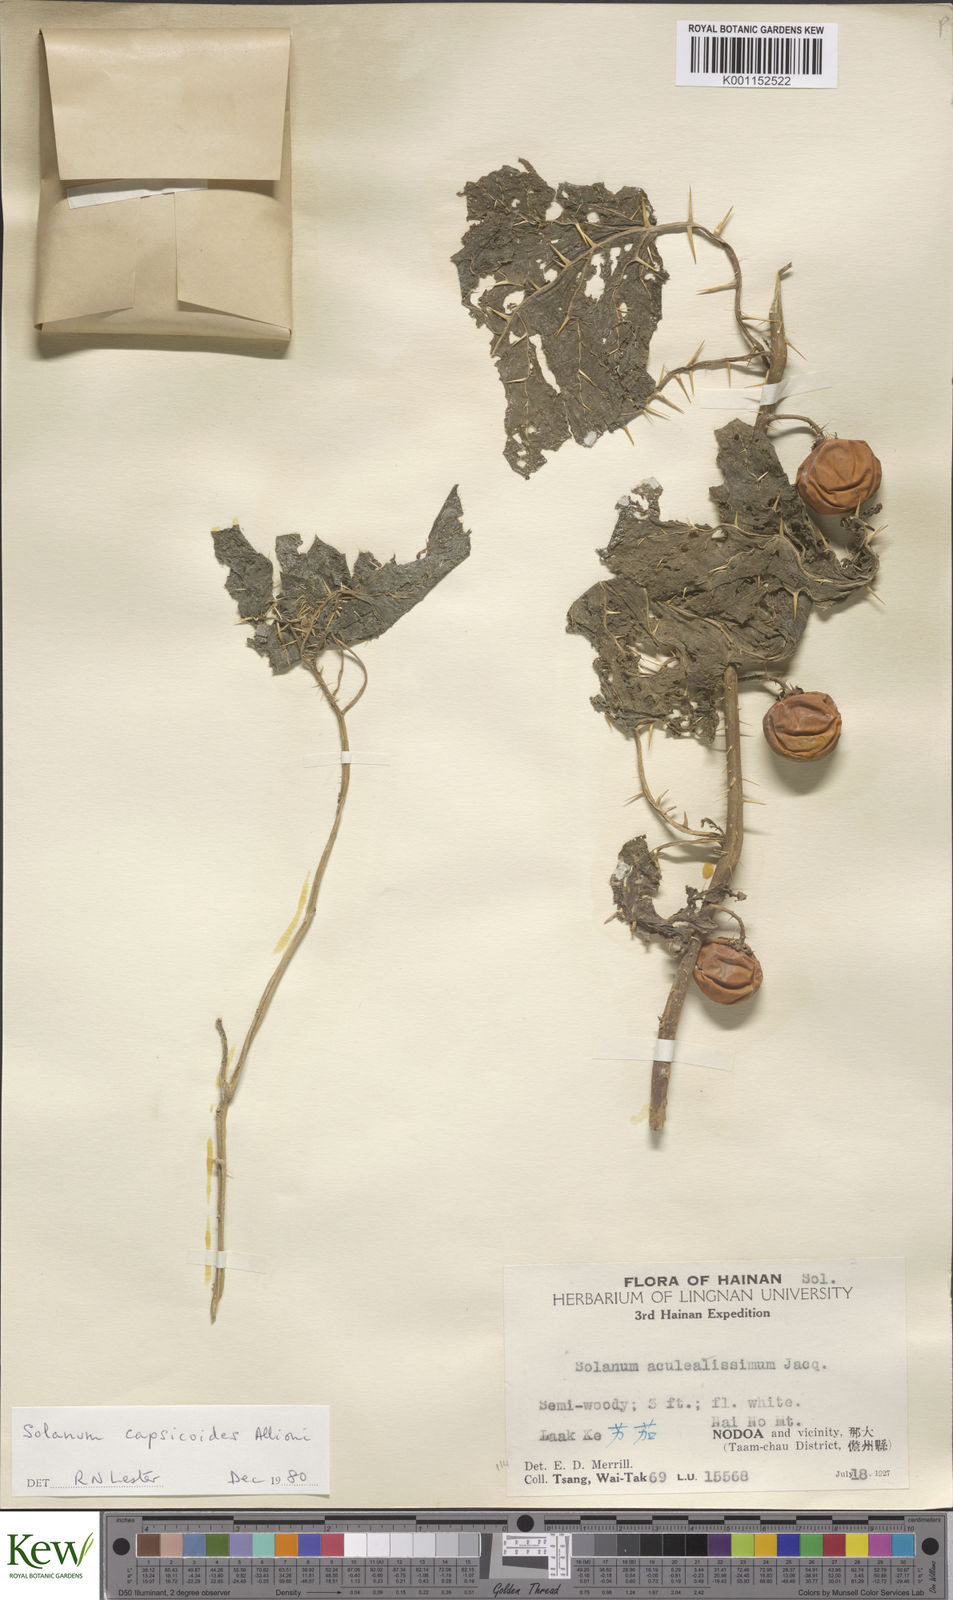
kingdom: Plantae
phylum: Tracheophyta
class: Magnoliopsida
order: Solanales
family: Solanaceae
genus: Solanum
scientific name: Solanum capsicoides
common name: Cockroach berry
